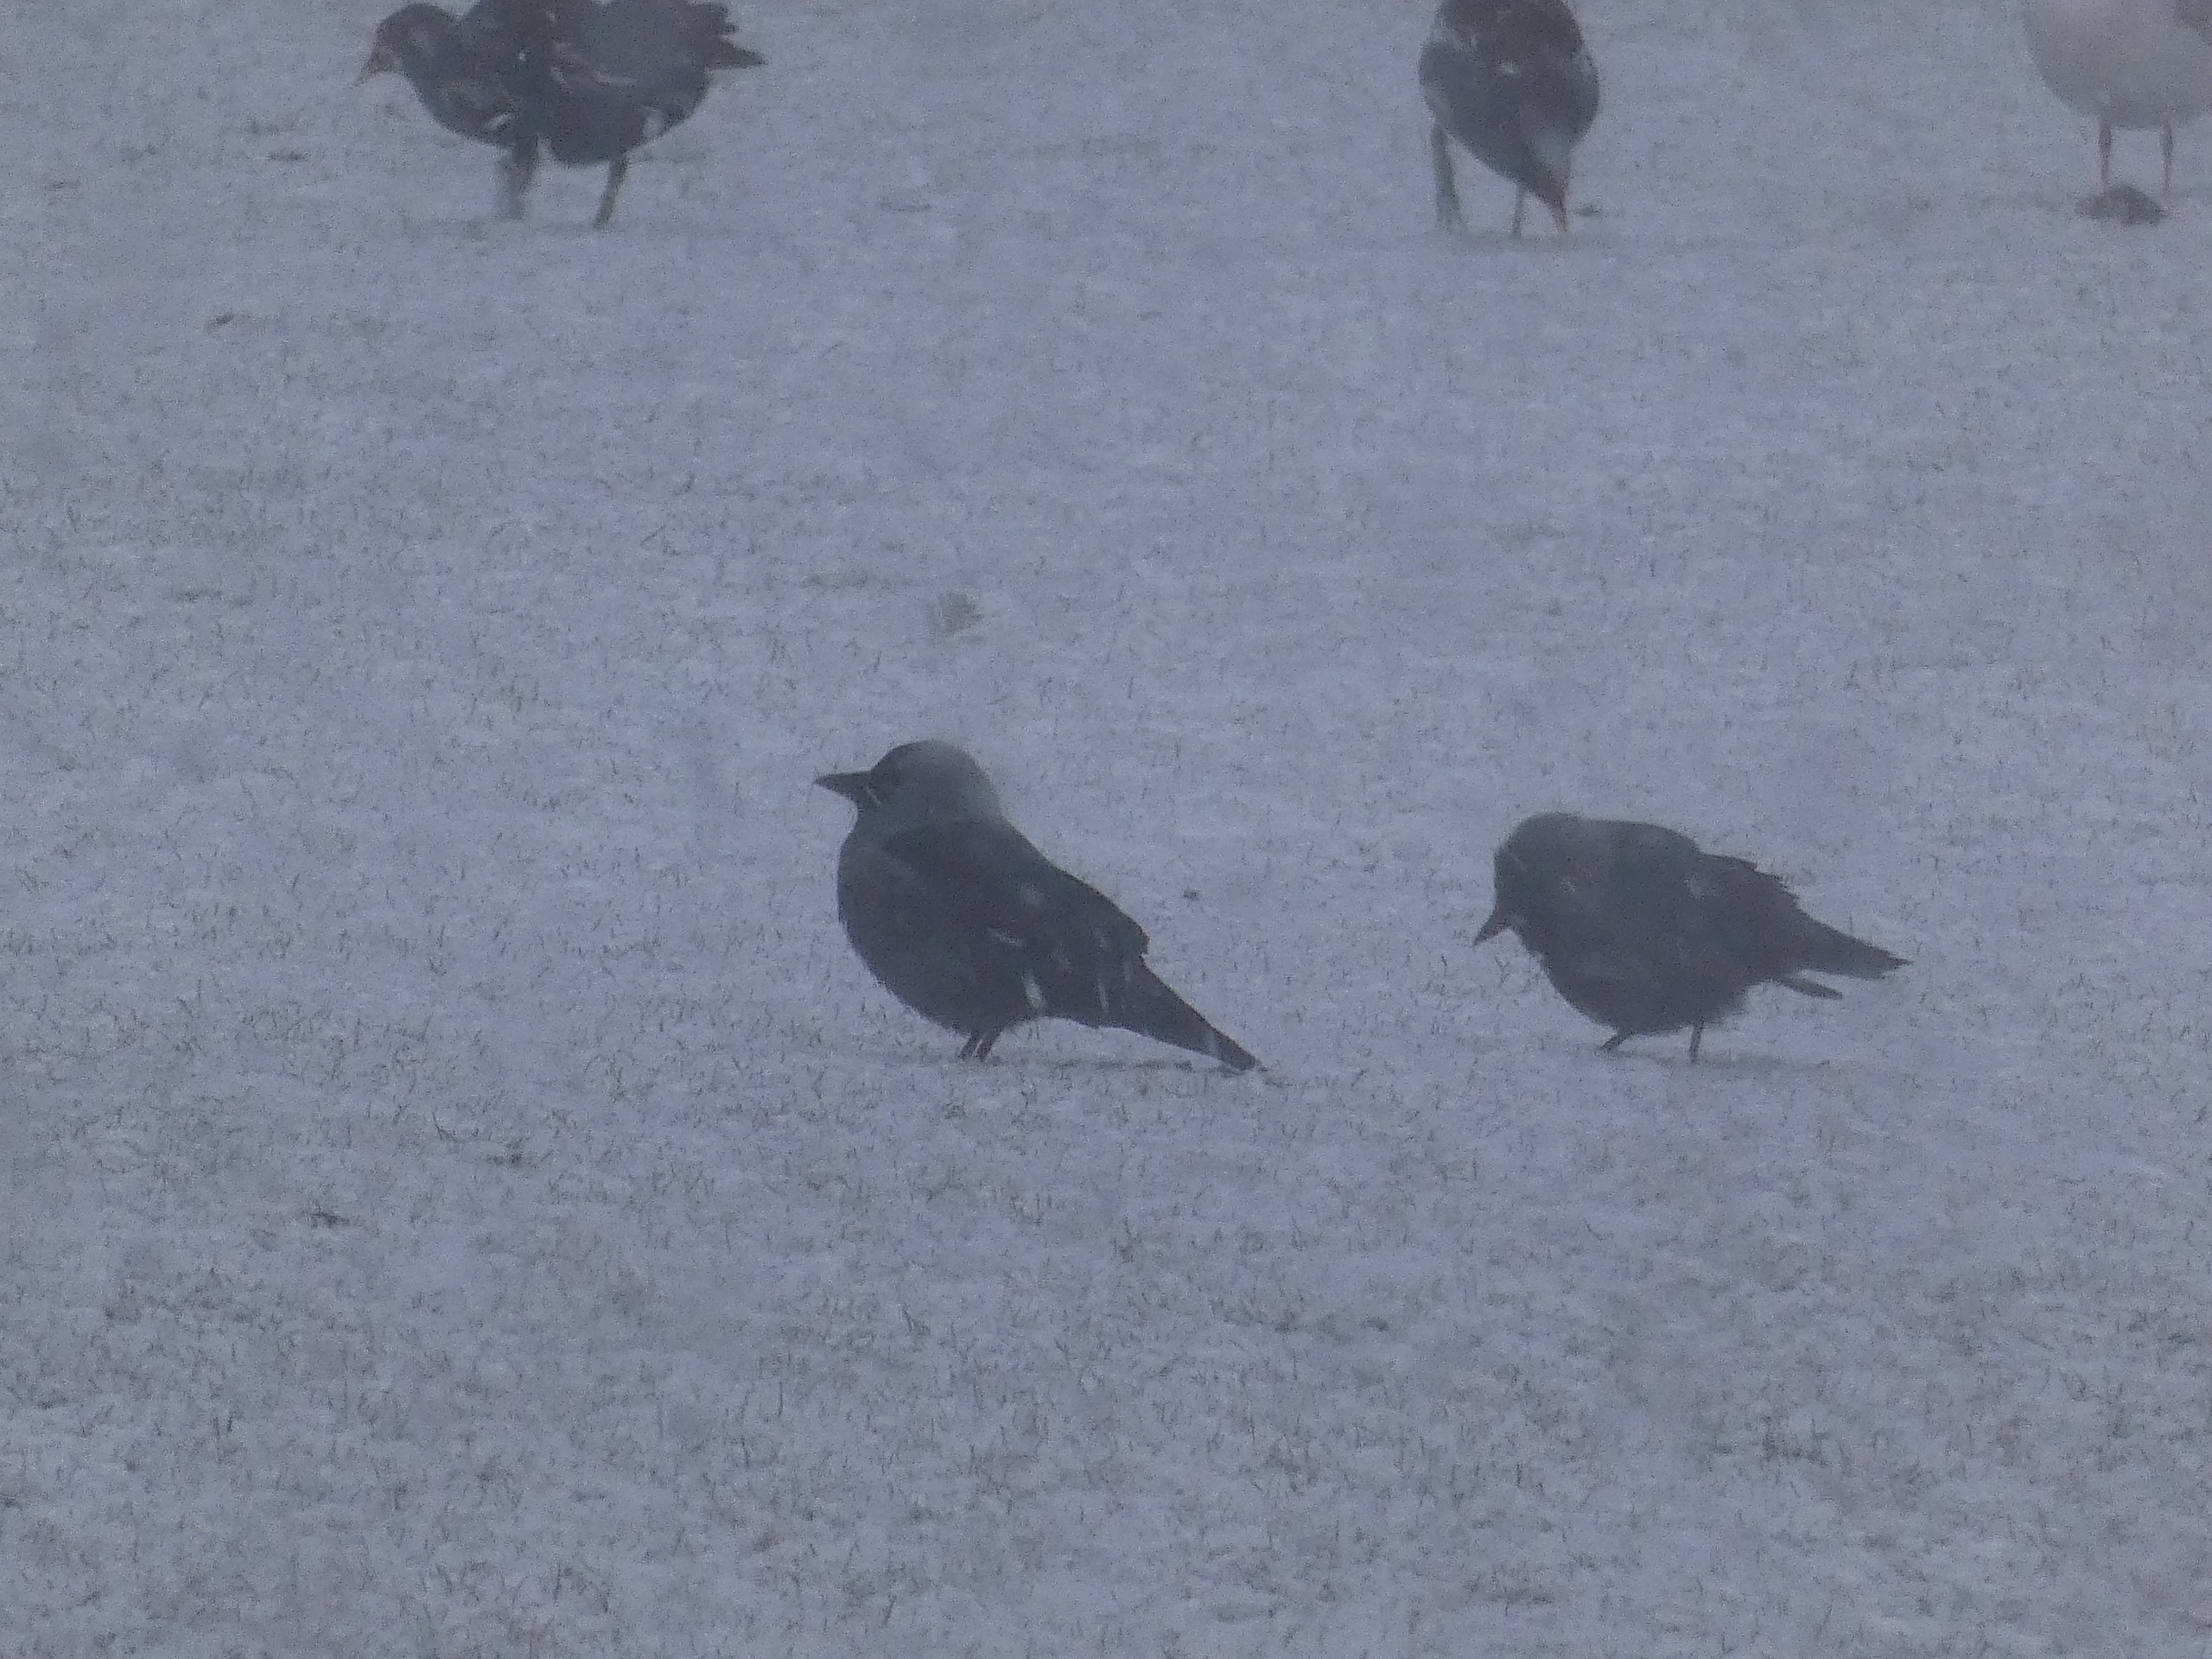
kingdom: Animalia
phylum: Chordata
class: Aves
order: Passeriformes
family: Corvidae
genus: Coloeus
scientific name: Coloeus monedula
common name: Allike
